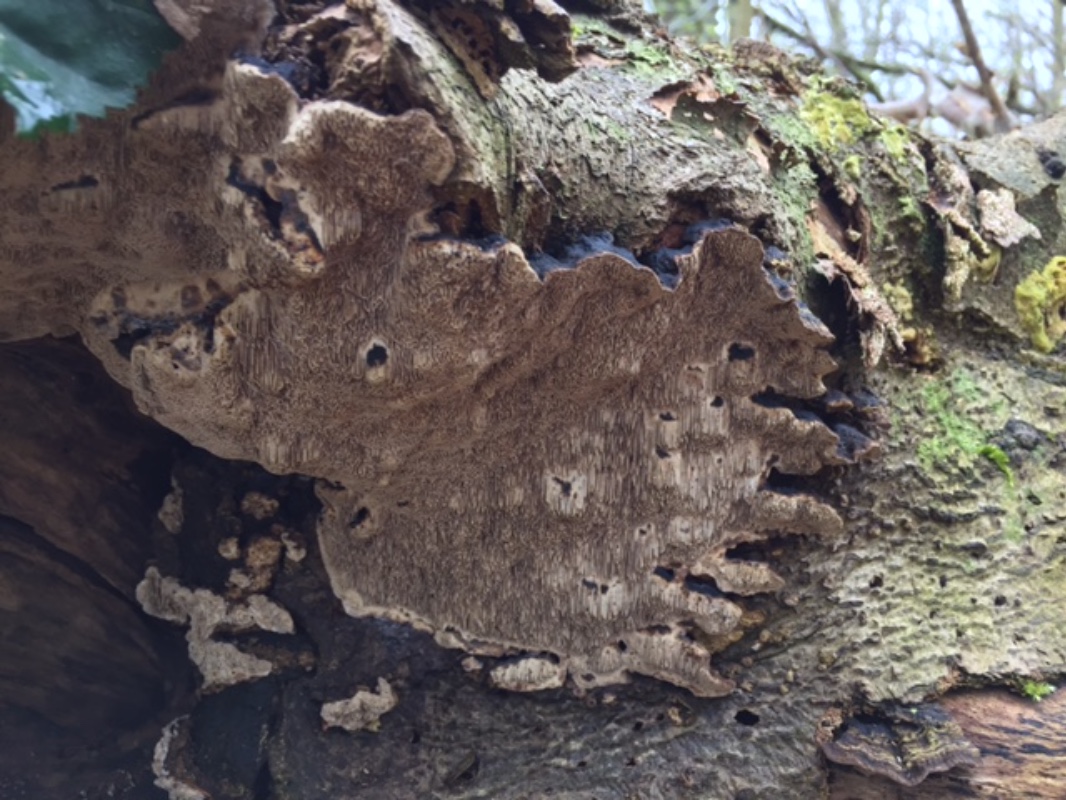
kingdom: Fungi
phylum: Basidiomycota
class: Agaricomycetes
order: Polyporales
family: Polyporaceae
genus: Podofomes
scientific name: Podofomes mollis
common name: blød begporesvamp
